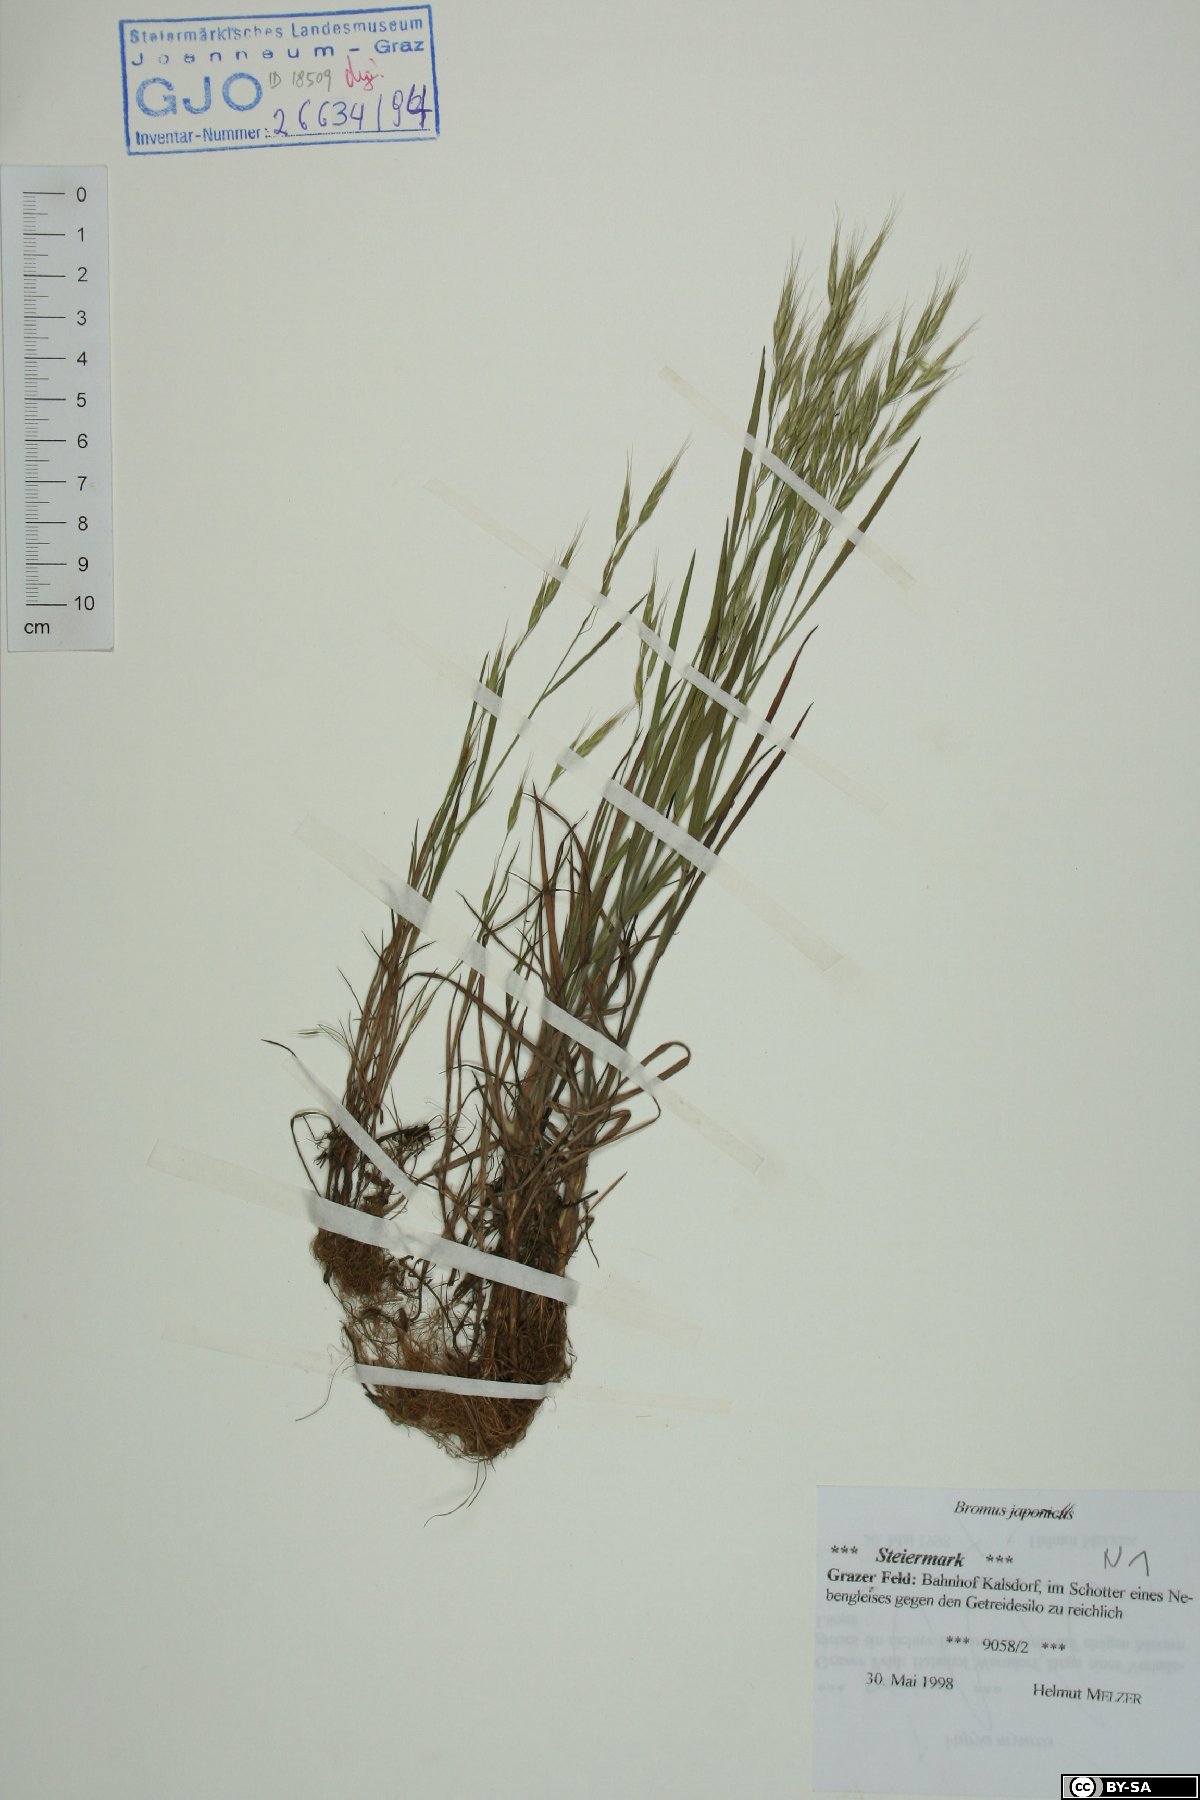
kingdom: Plantae
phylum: Tracheophyta
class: Liliopsida
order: Poales
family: Poaceae
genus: Bromus
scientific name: Bromus japonicus
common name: Japanese brome
